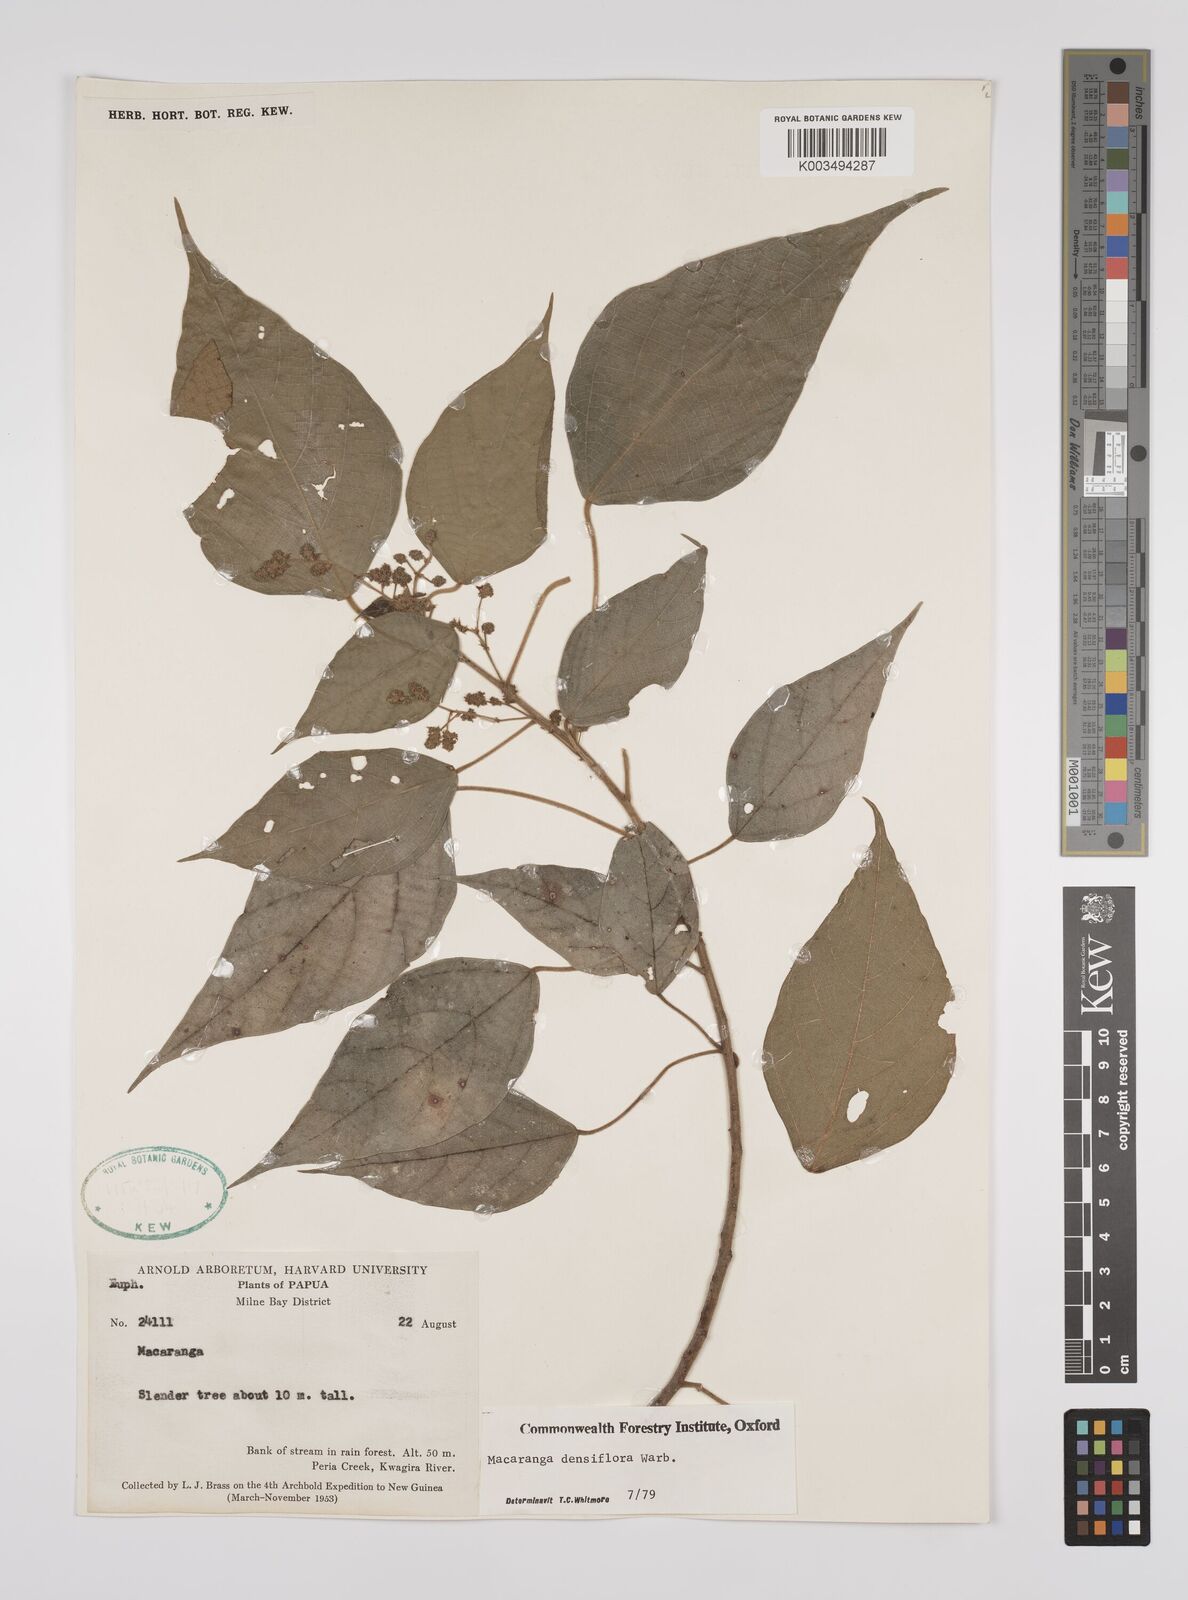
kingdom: Plantae
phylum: Tracheophyta
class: Magnoliopsida
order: Malpighiales
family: Euphorbiaceae
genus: Macaranga
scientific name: Macaranga densiflora
